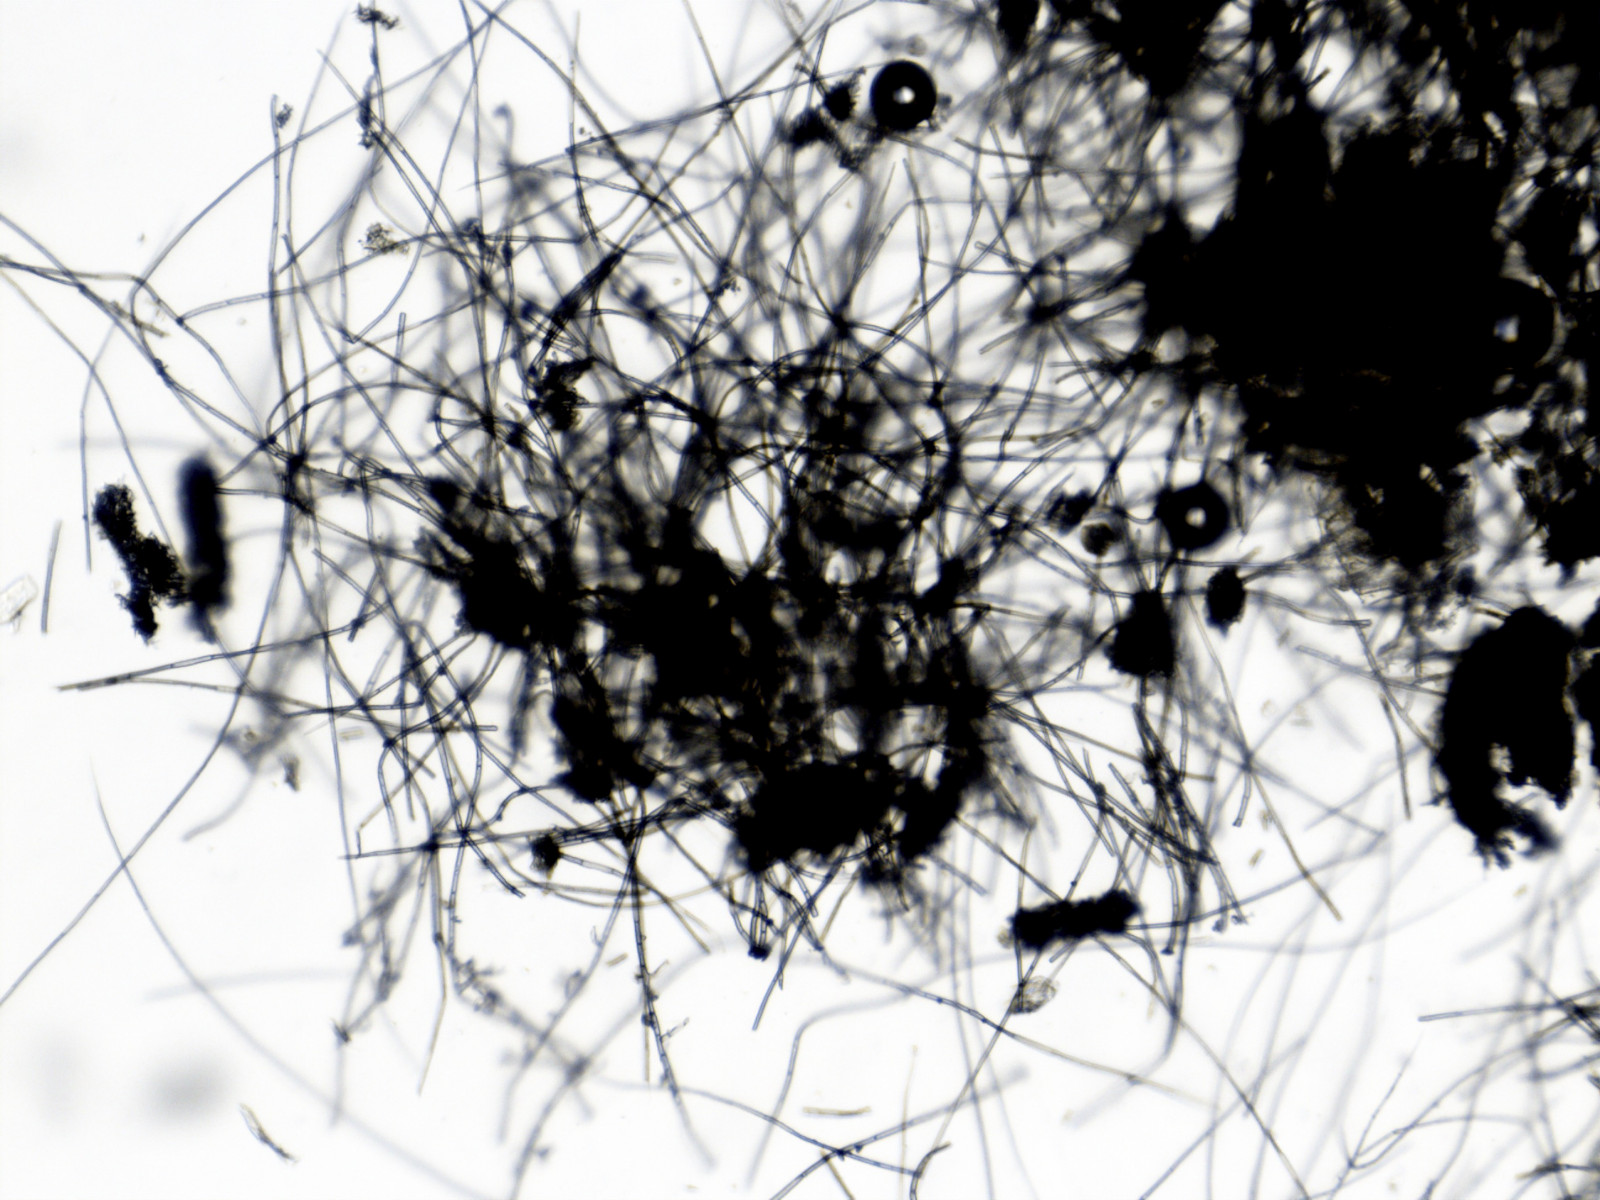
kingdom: Fungi
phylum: Ascomycota
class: Sordariomycetes
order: Chaetosphaeriales
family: Chaetosphaeriaceae
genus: Menispora
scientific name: Menispora ciliata
